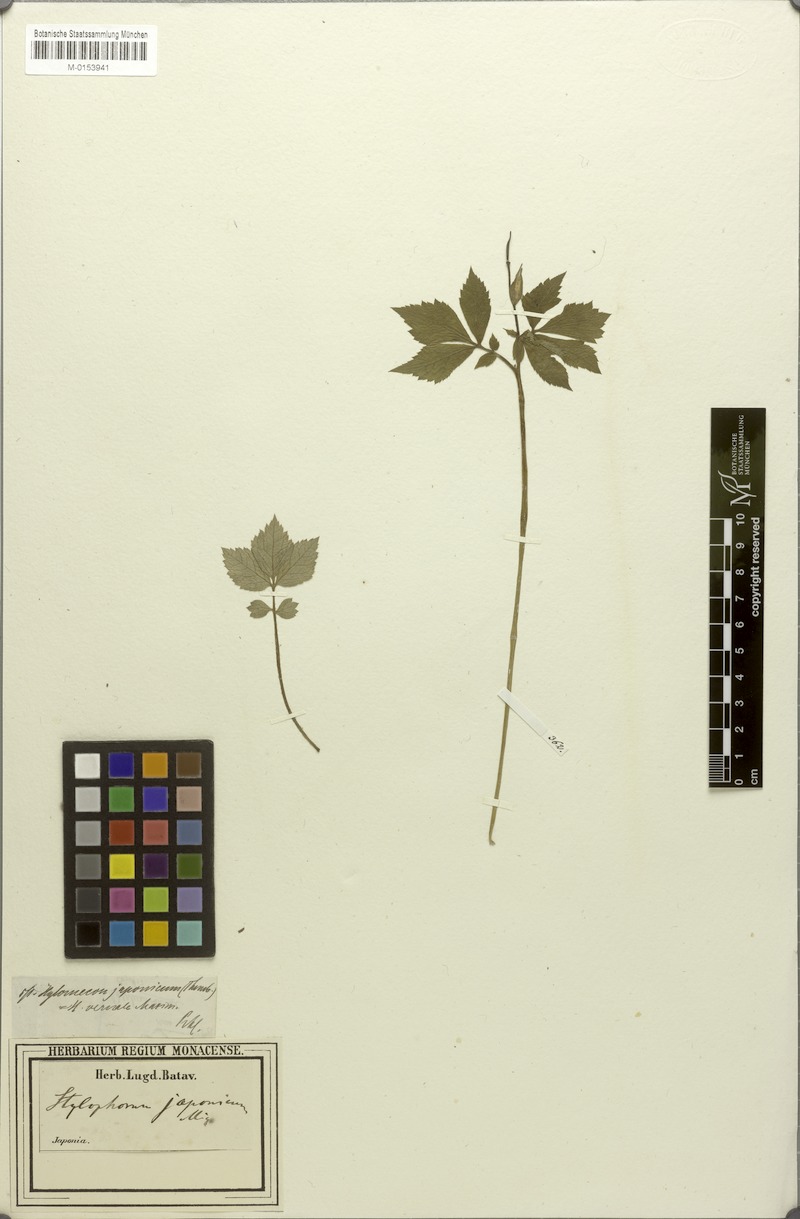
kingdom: Plantae
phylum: Tracheophyta
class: Magnoliopsida
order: Ranunculales
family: Papaveraceae
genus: Hylomecon
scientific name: Hylomecon japonicum
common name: Forest-poppy
